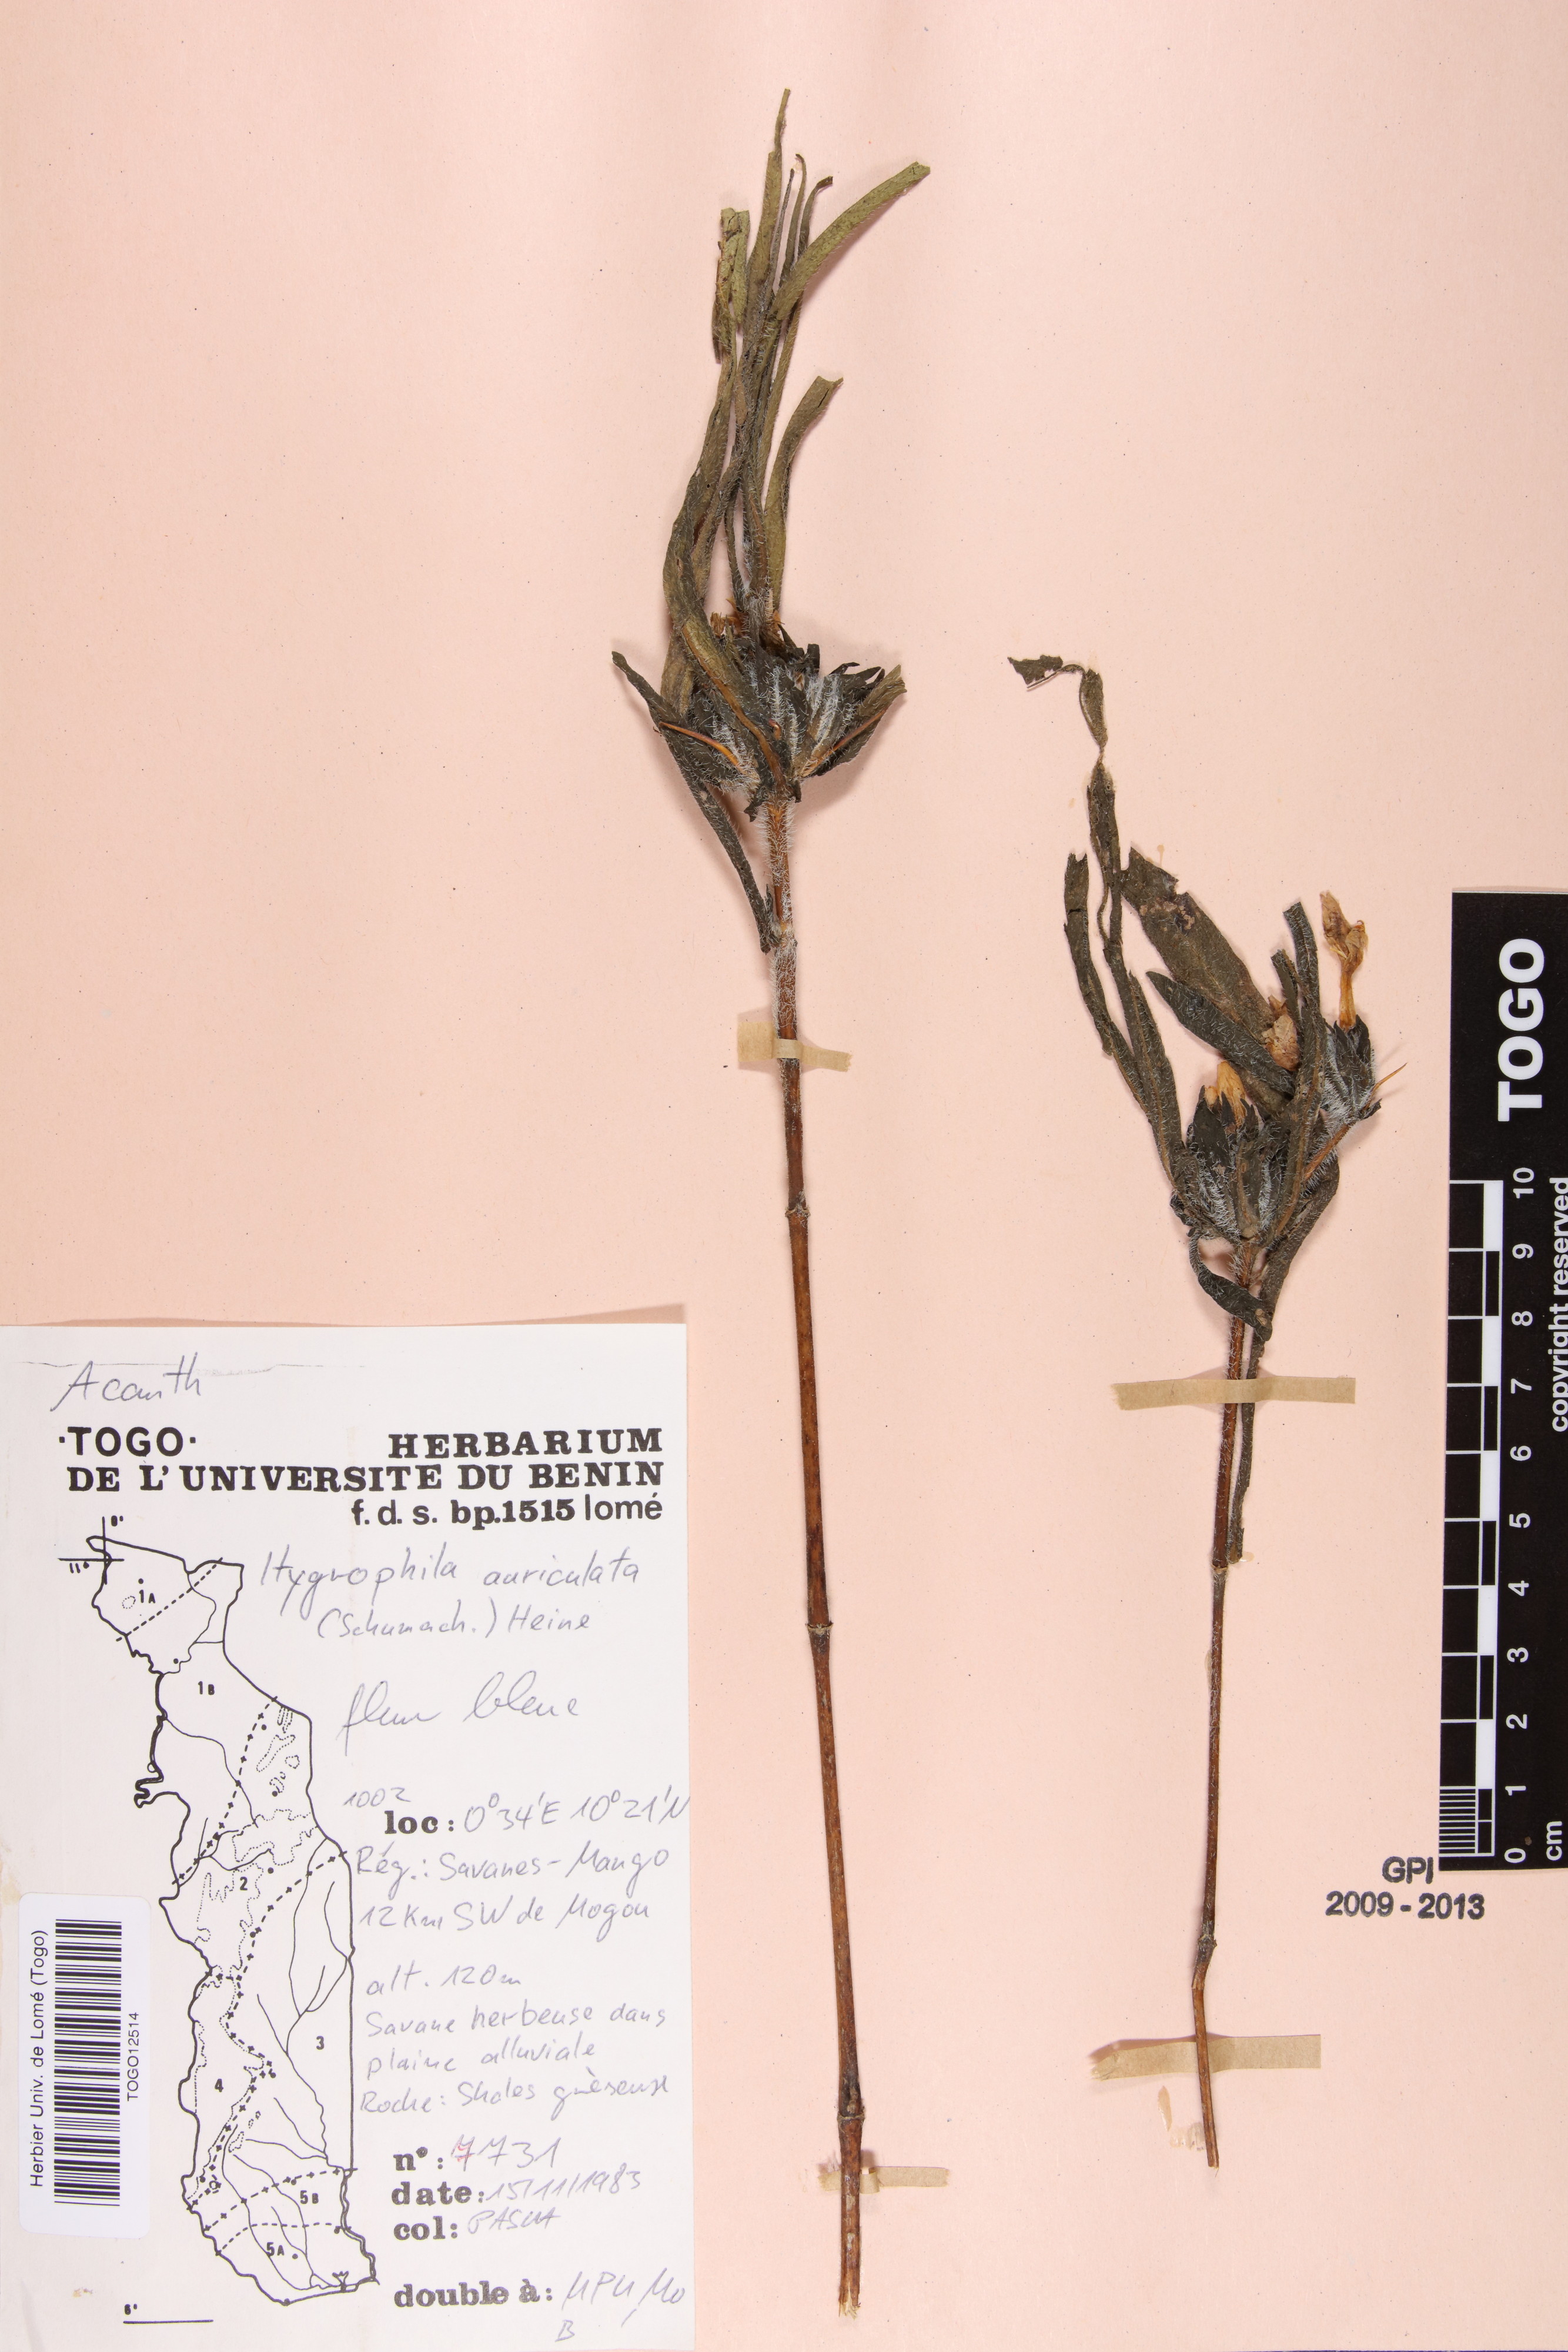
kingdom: Plantae
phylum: Tracheophyta
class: Magnoliopsida
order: Lamiales
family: Acanthaceae
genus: Hygrophila
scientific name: Hygrophila auriculata
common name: Hygrophila
